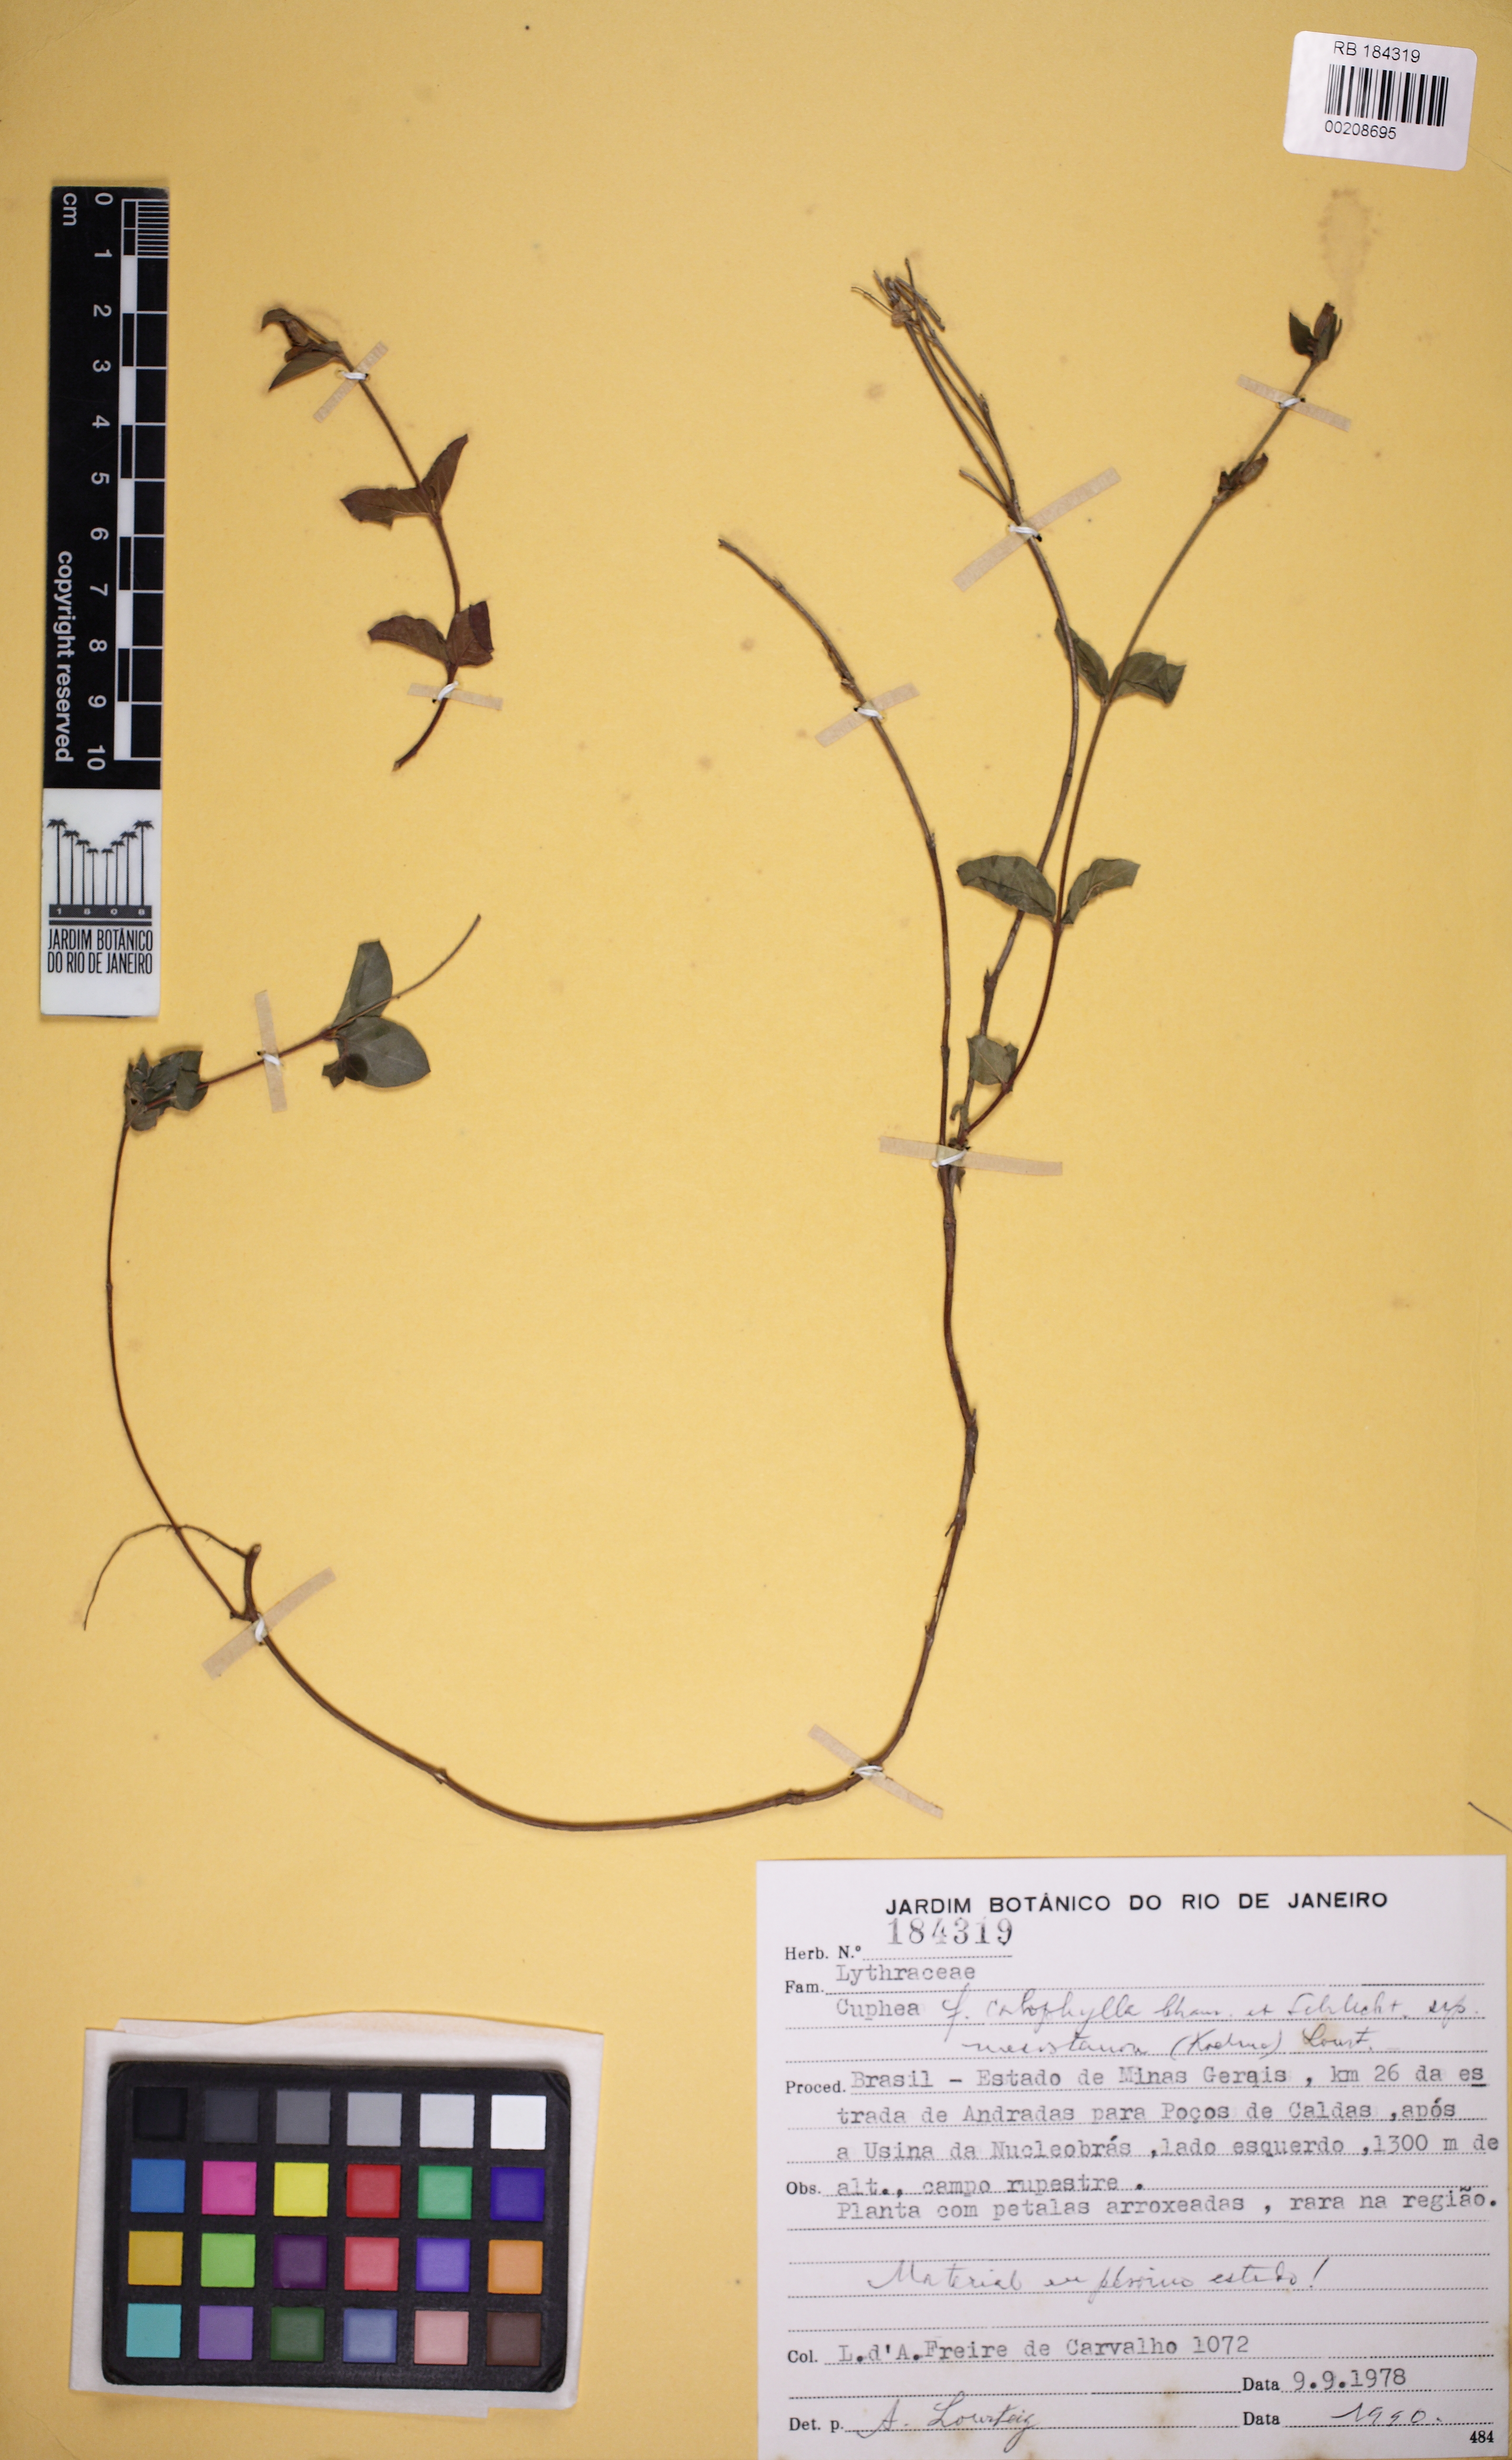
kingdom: Plantae
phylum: Tracheophyta
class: Magnoliopsida
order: Myrtales
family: Lythraceae
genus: Cuphea
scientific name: Cuphea calophylla
